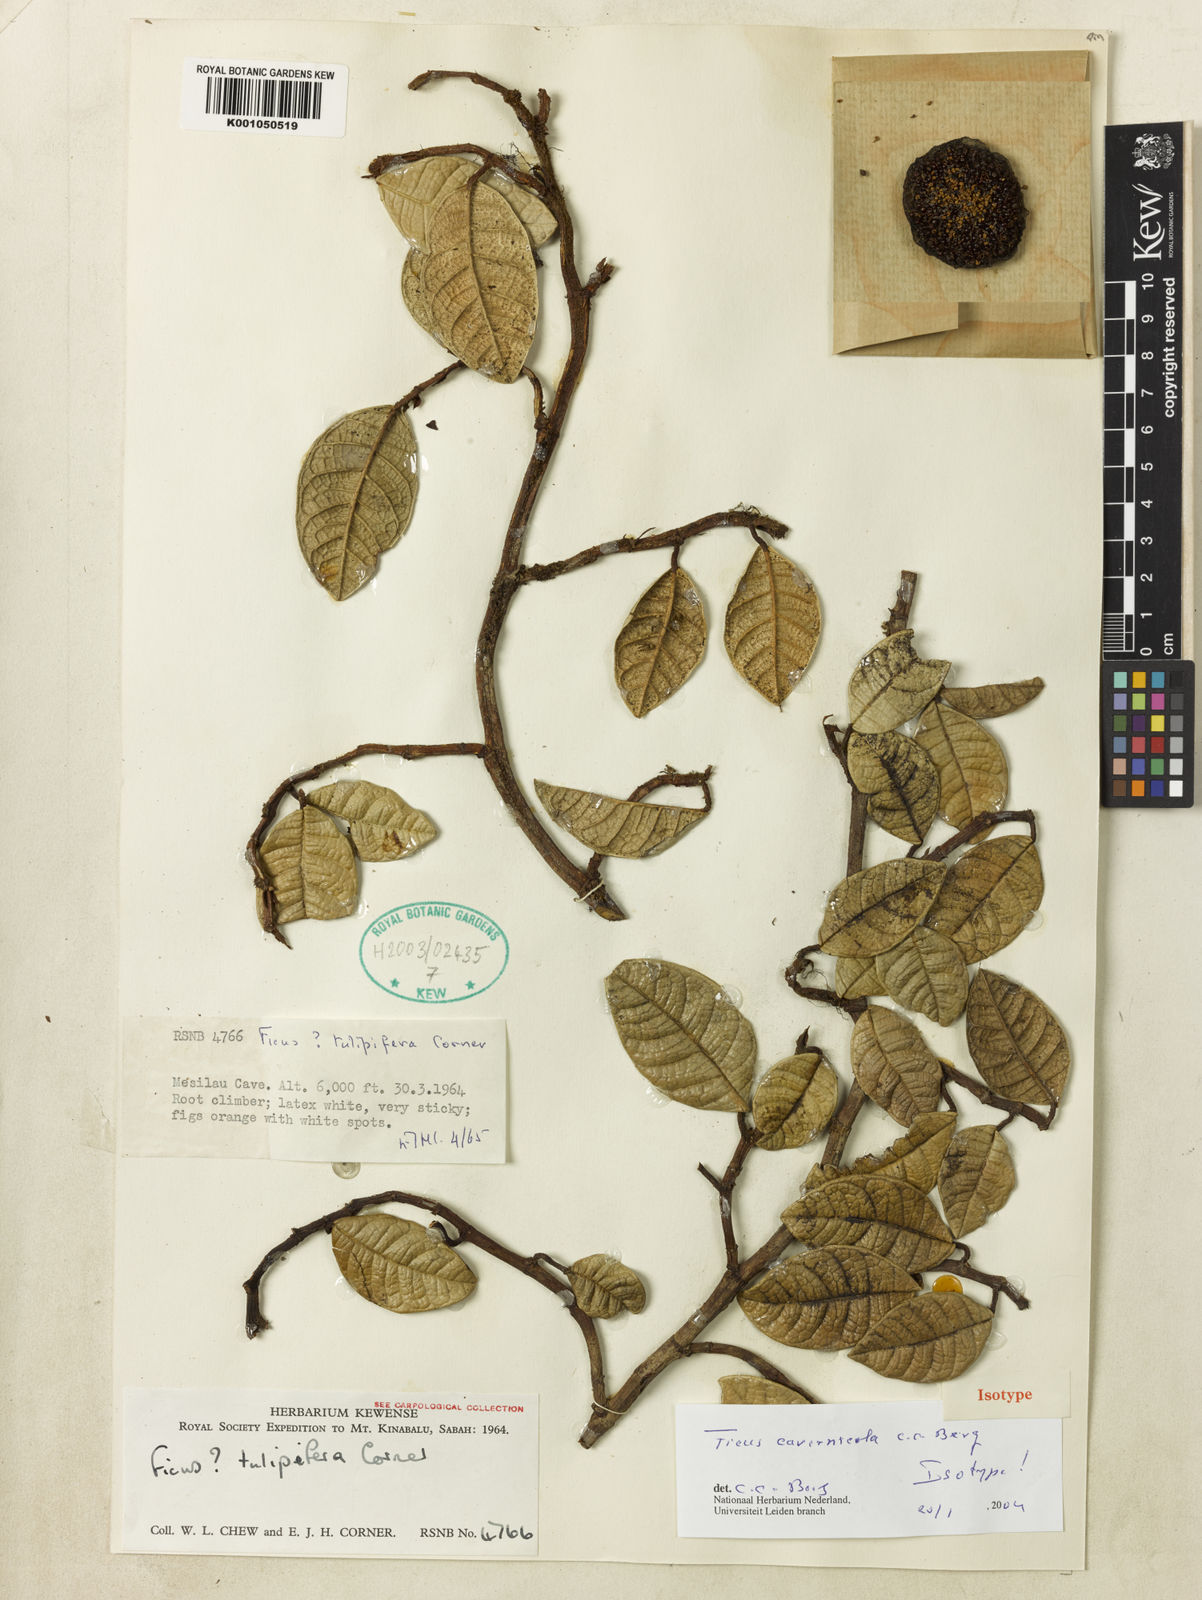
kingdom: Plantae
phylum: Tracheophyta
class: Magnoliopsida
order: Rosales
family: Moraceae
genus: Ficus
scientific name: Ficus cavernicola
